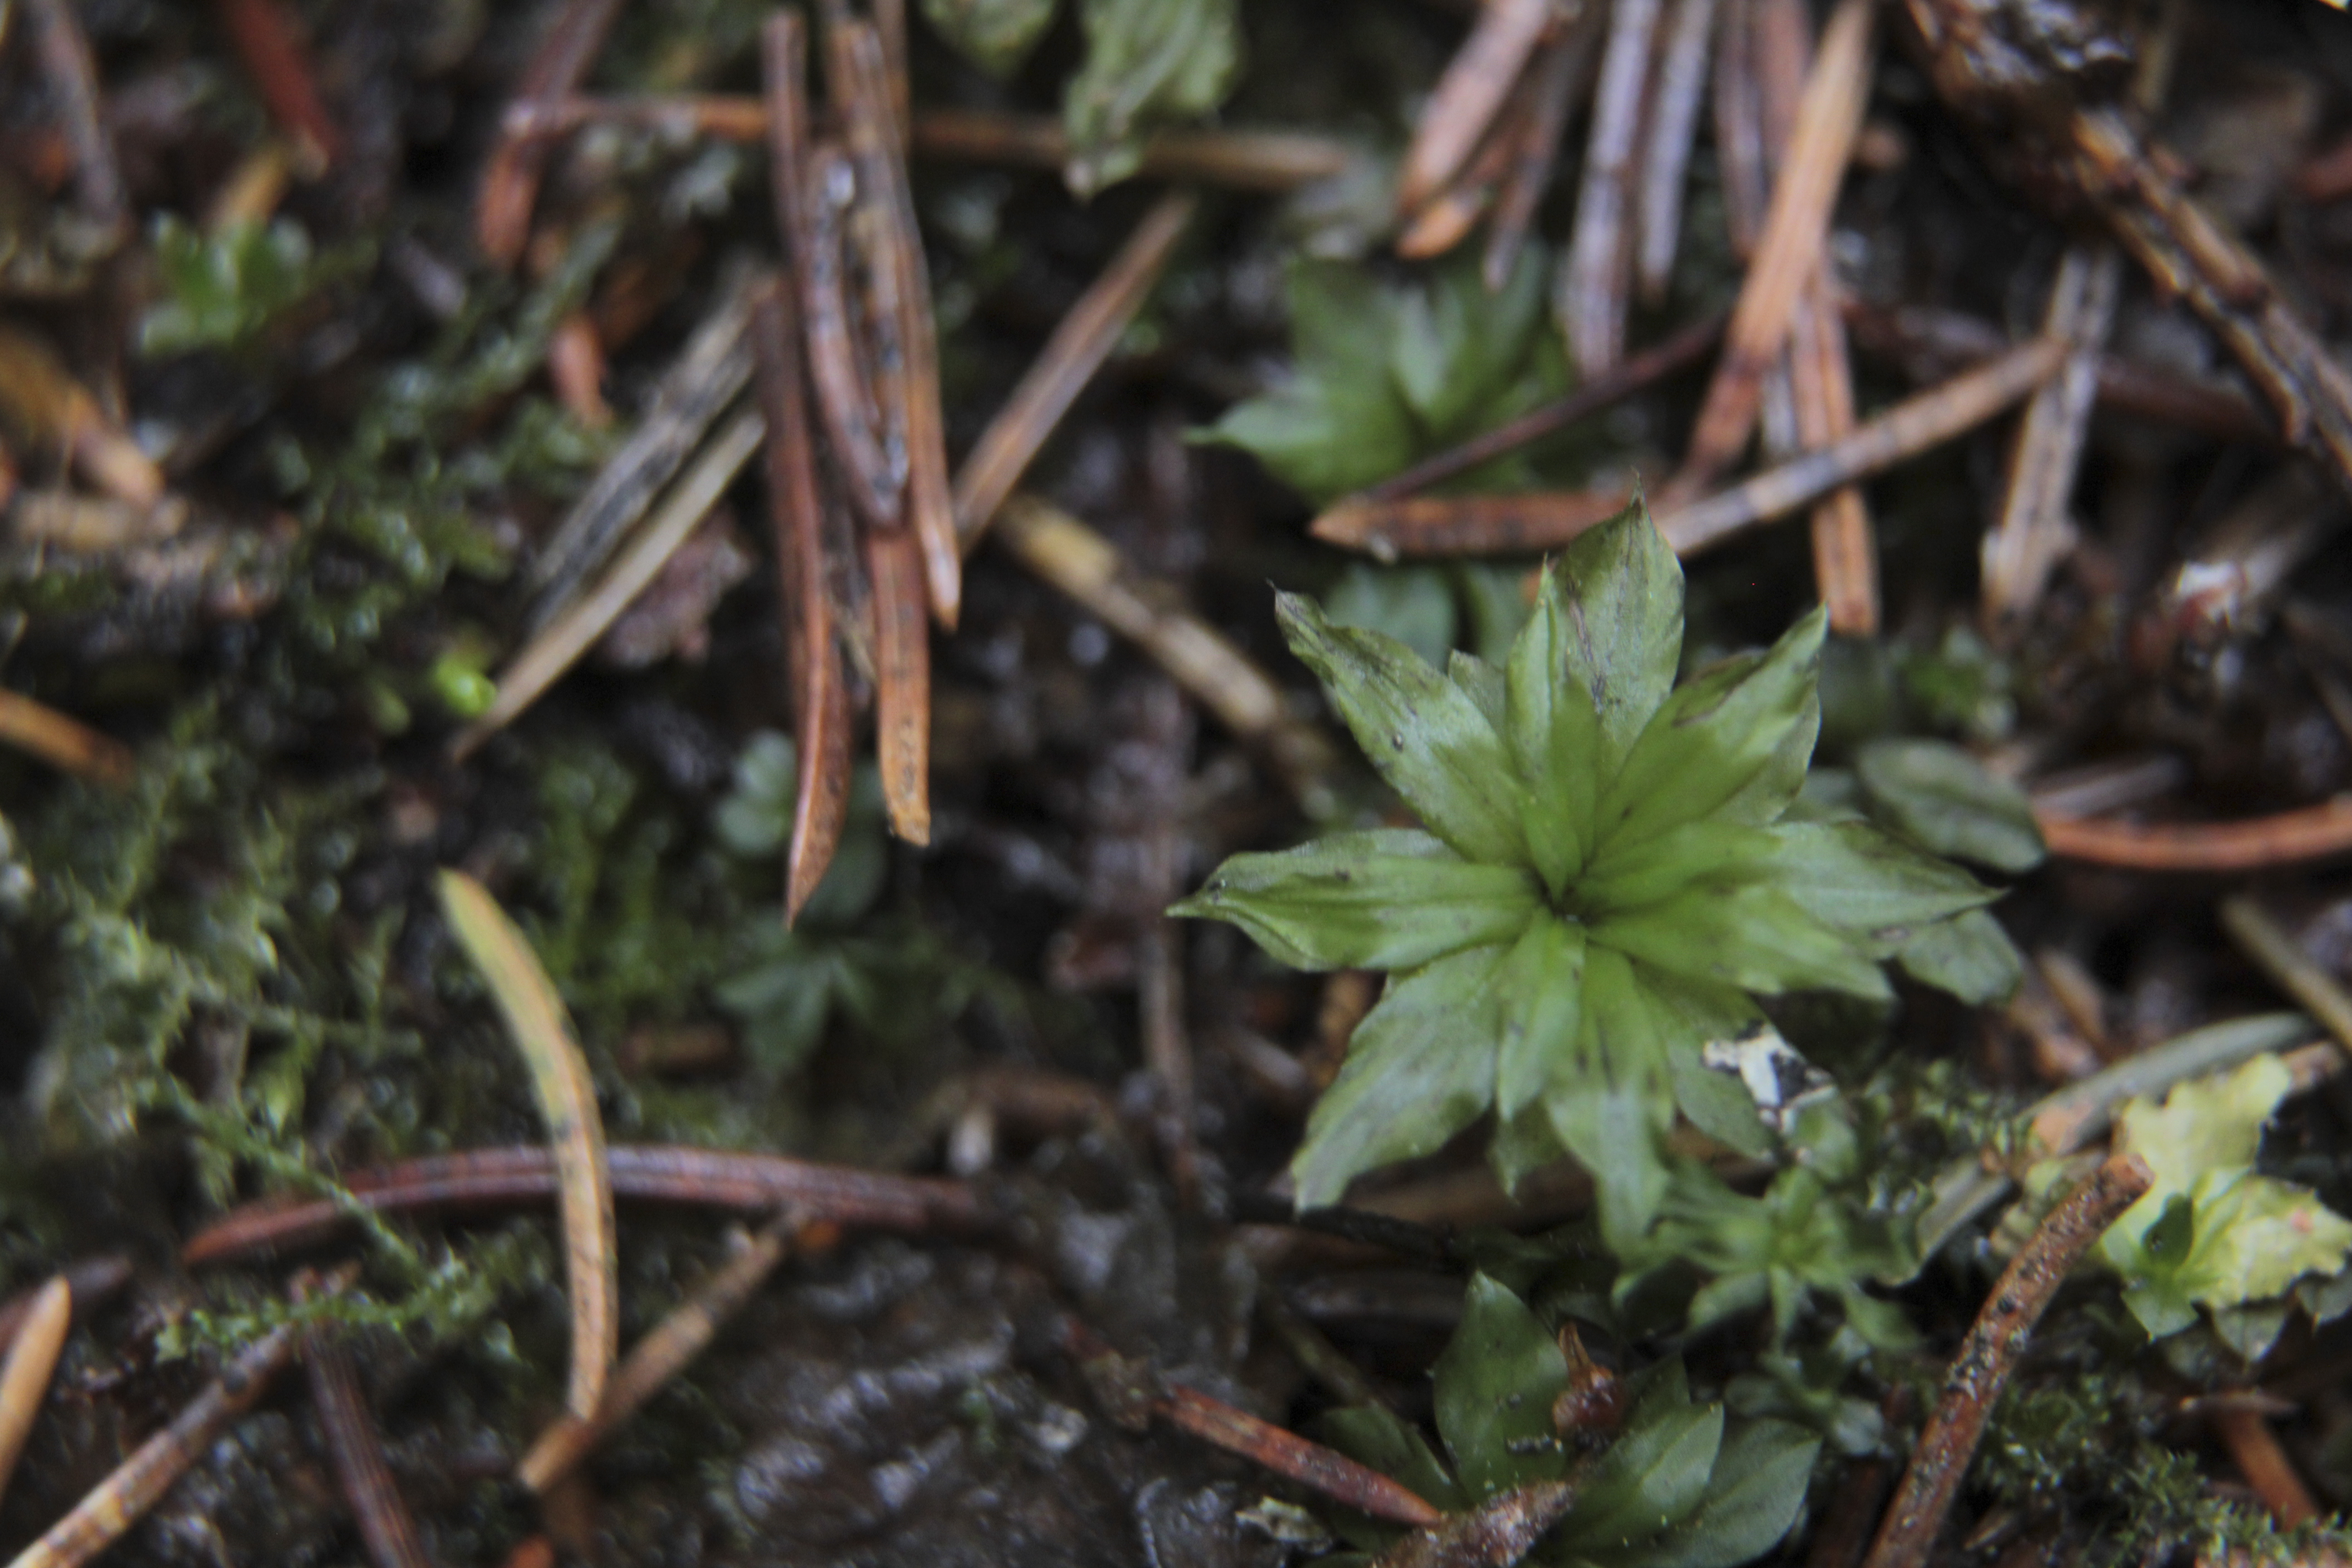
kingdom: Plantae
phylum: Bryophyta
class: Bryopsida
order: Bryales
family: Bryaceae
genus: Rhodobryum
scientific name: Rhodobryum roseum
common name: Rose-moss
